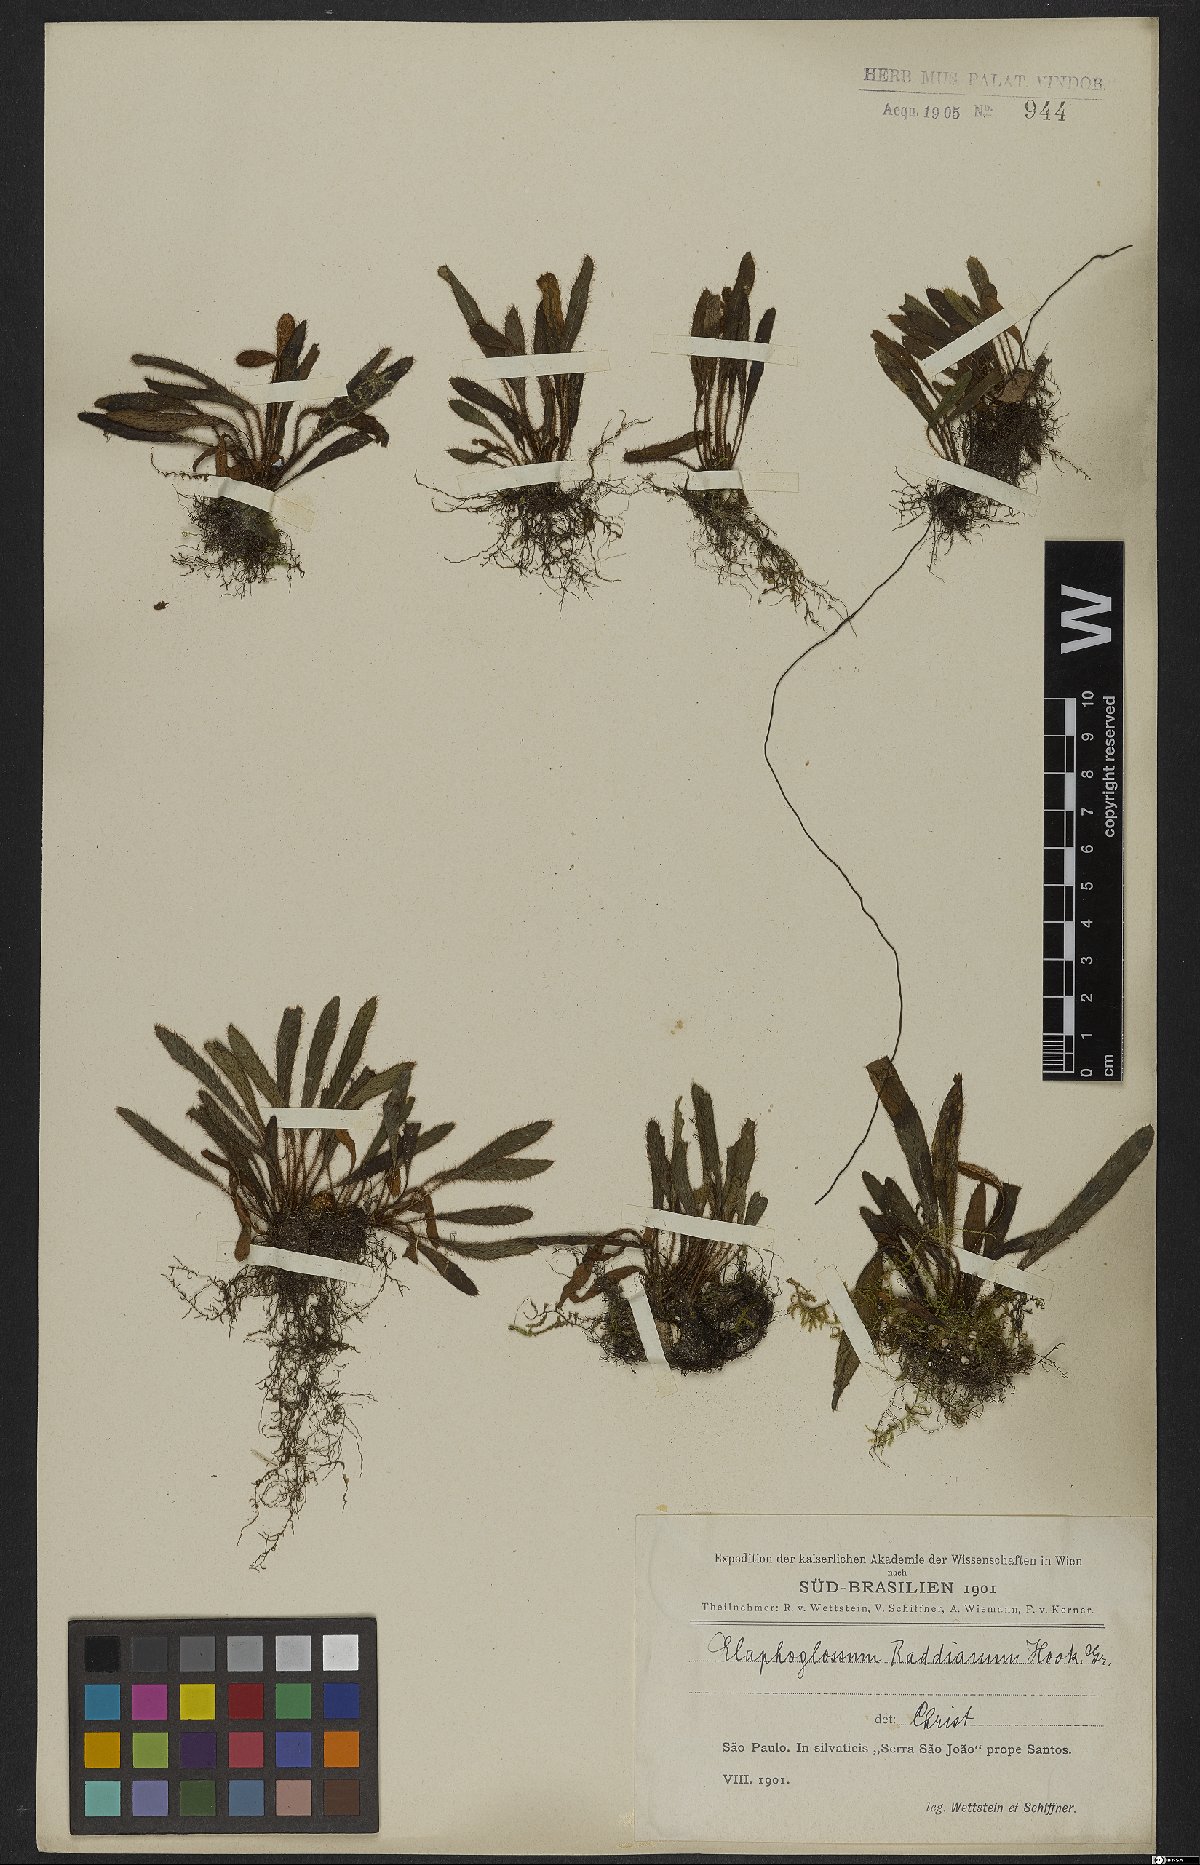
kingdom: Plantae
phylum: Tracheophyta
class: Polypodiopsida
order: Polypodiales
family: Dryopteridaceae
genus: Elaphoglossum
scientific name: Elaphoglossum spatulatum
